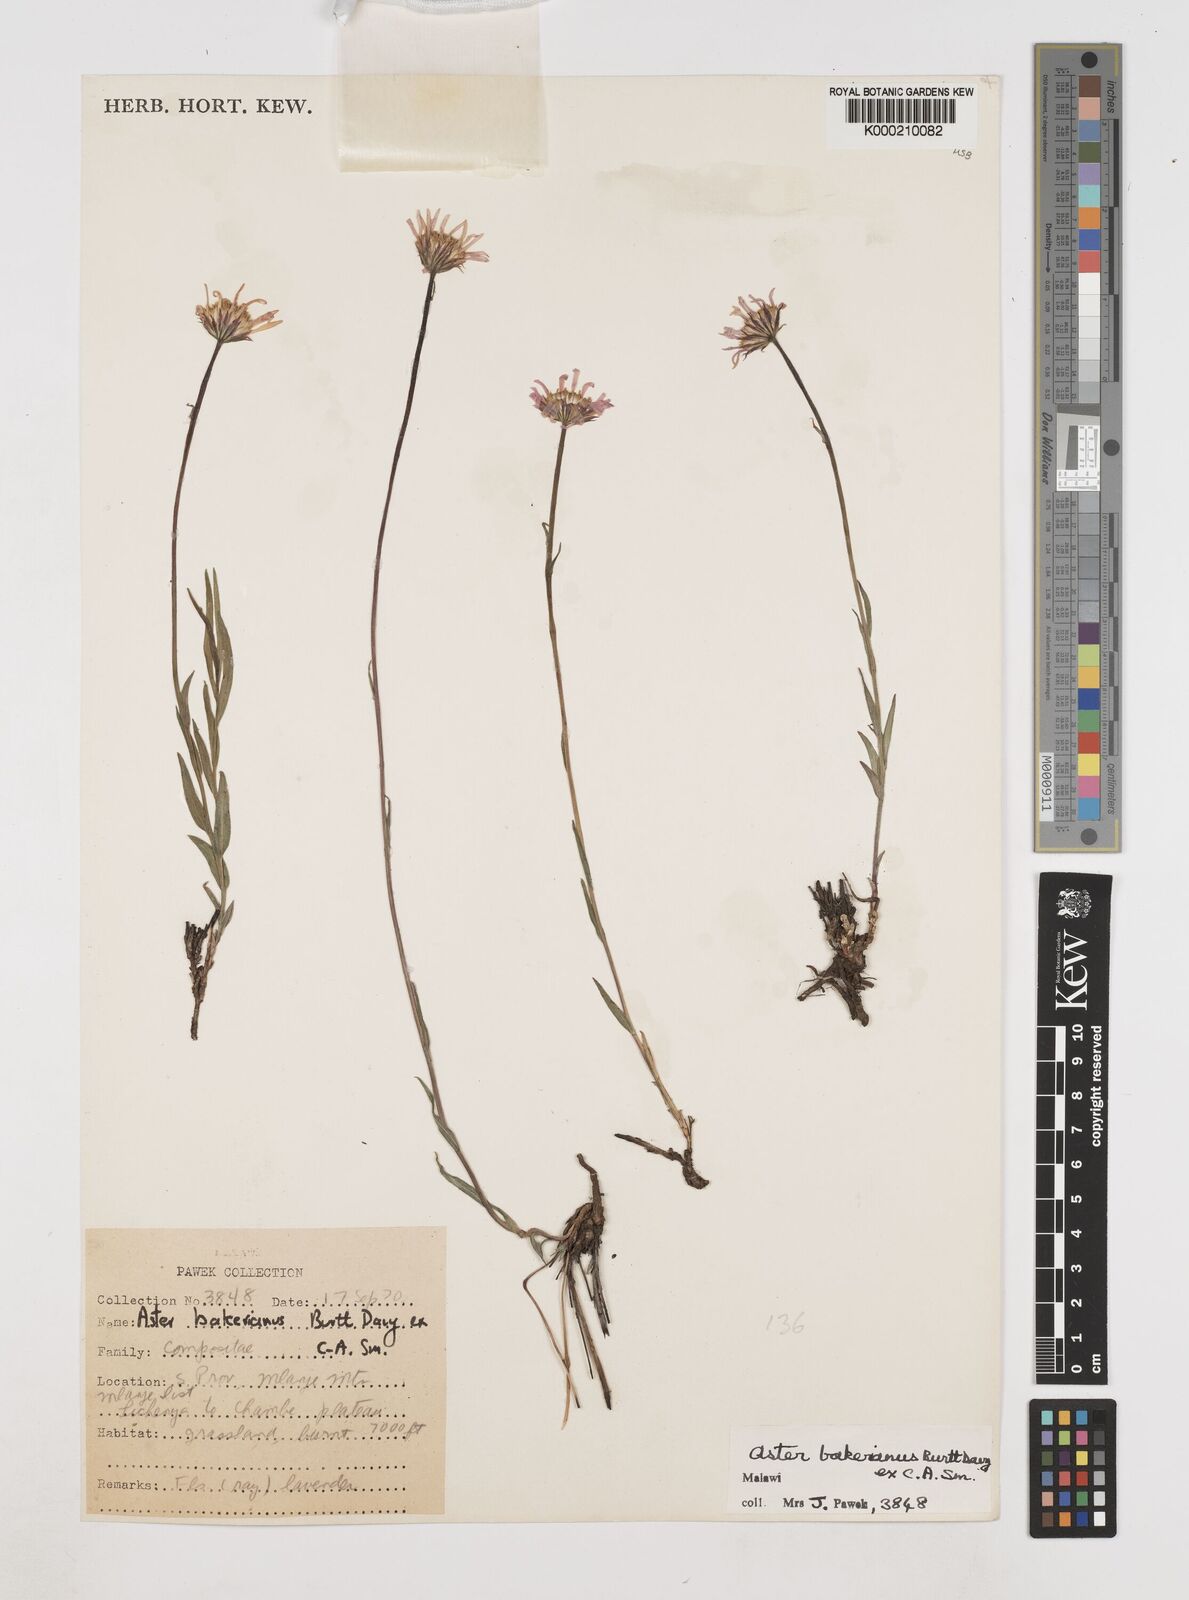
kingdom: Plantae
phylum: Tracheophyta
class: Magnoliopsida
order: Asterales
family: Asteraceae
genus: Afroaster
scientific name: Afroaster milanjiensis
